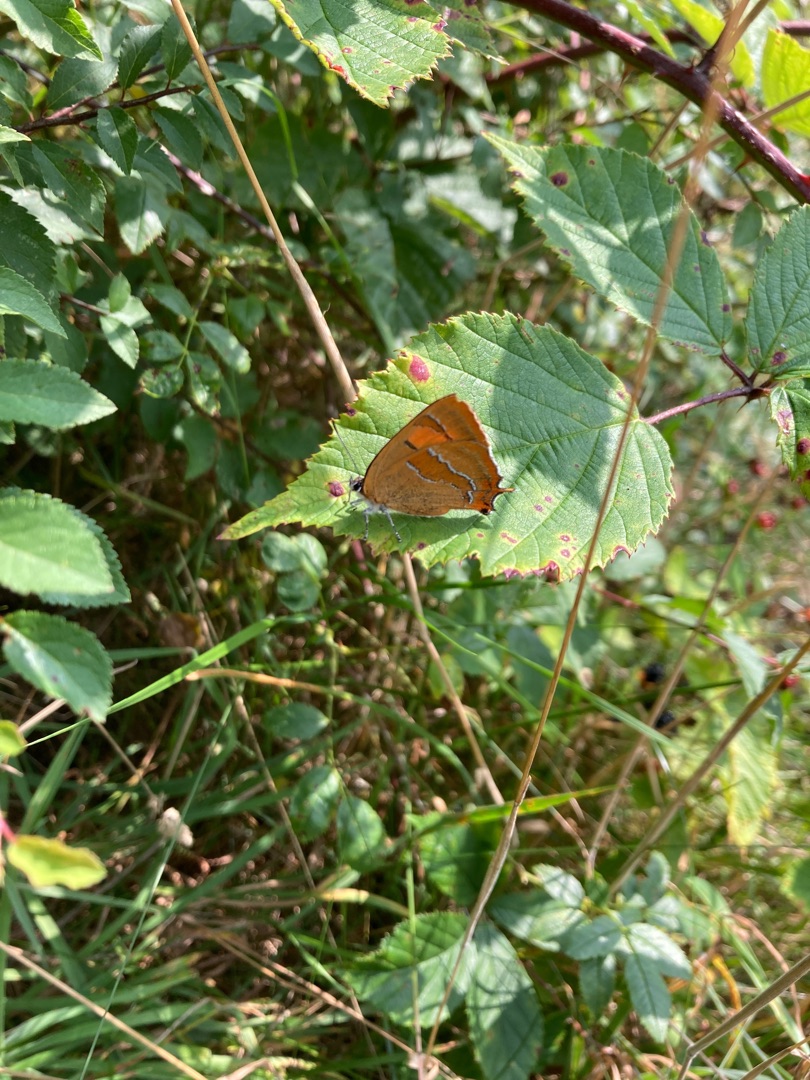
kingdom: Animalia
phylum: Arthropoda
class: Insecta
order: Lepidoptera
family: Lycaenidae
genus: Thecla
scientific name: Thecla betulae
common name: Guldhale
